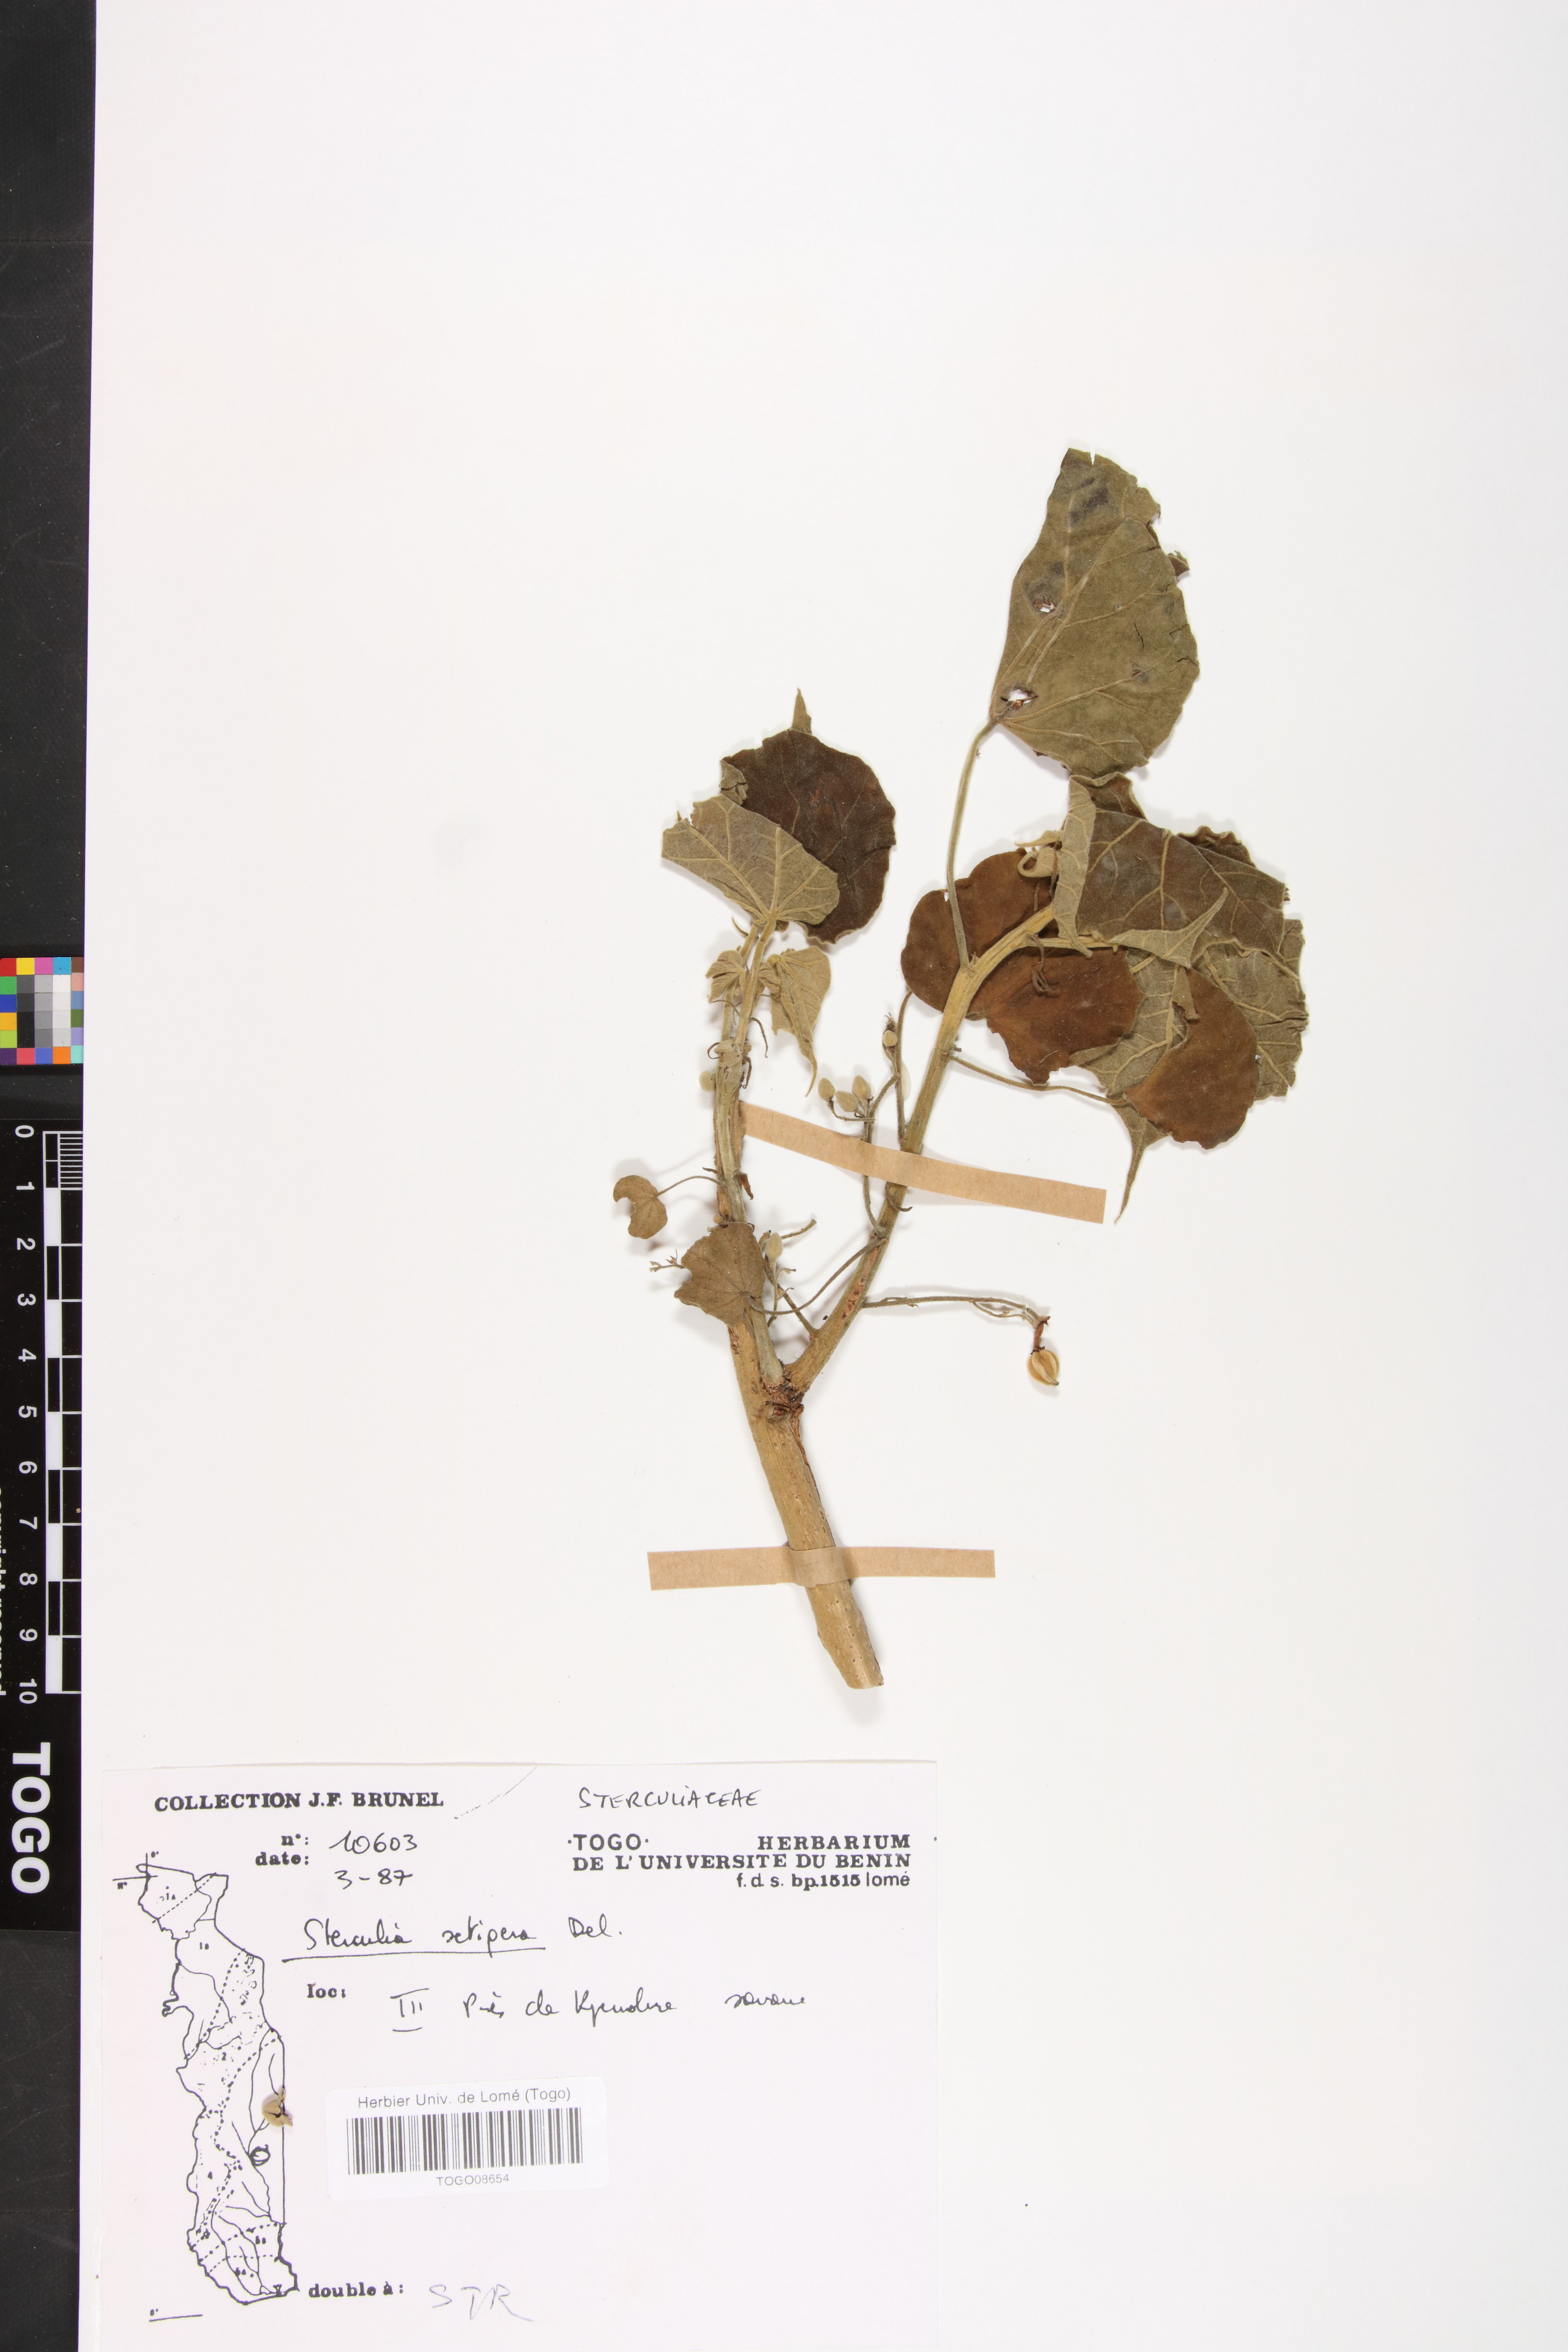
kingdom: Plantae
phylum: Tracheophyta
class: Magnoliopsida
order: Malvales
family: Malvaceae
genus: Sterculia
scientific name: Sterculia setigera
